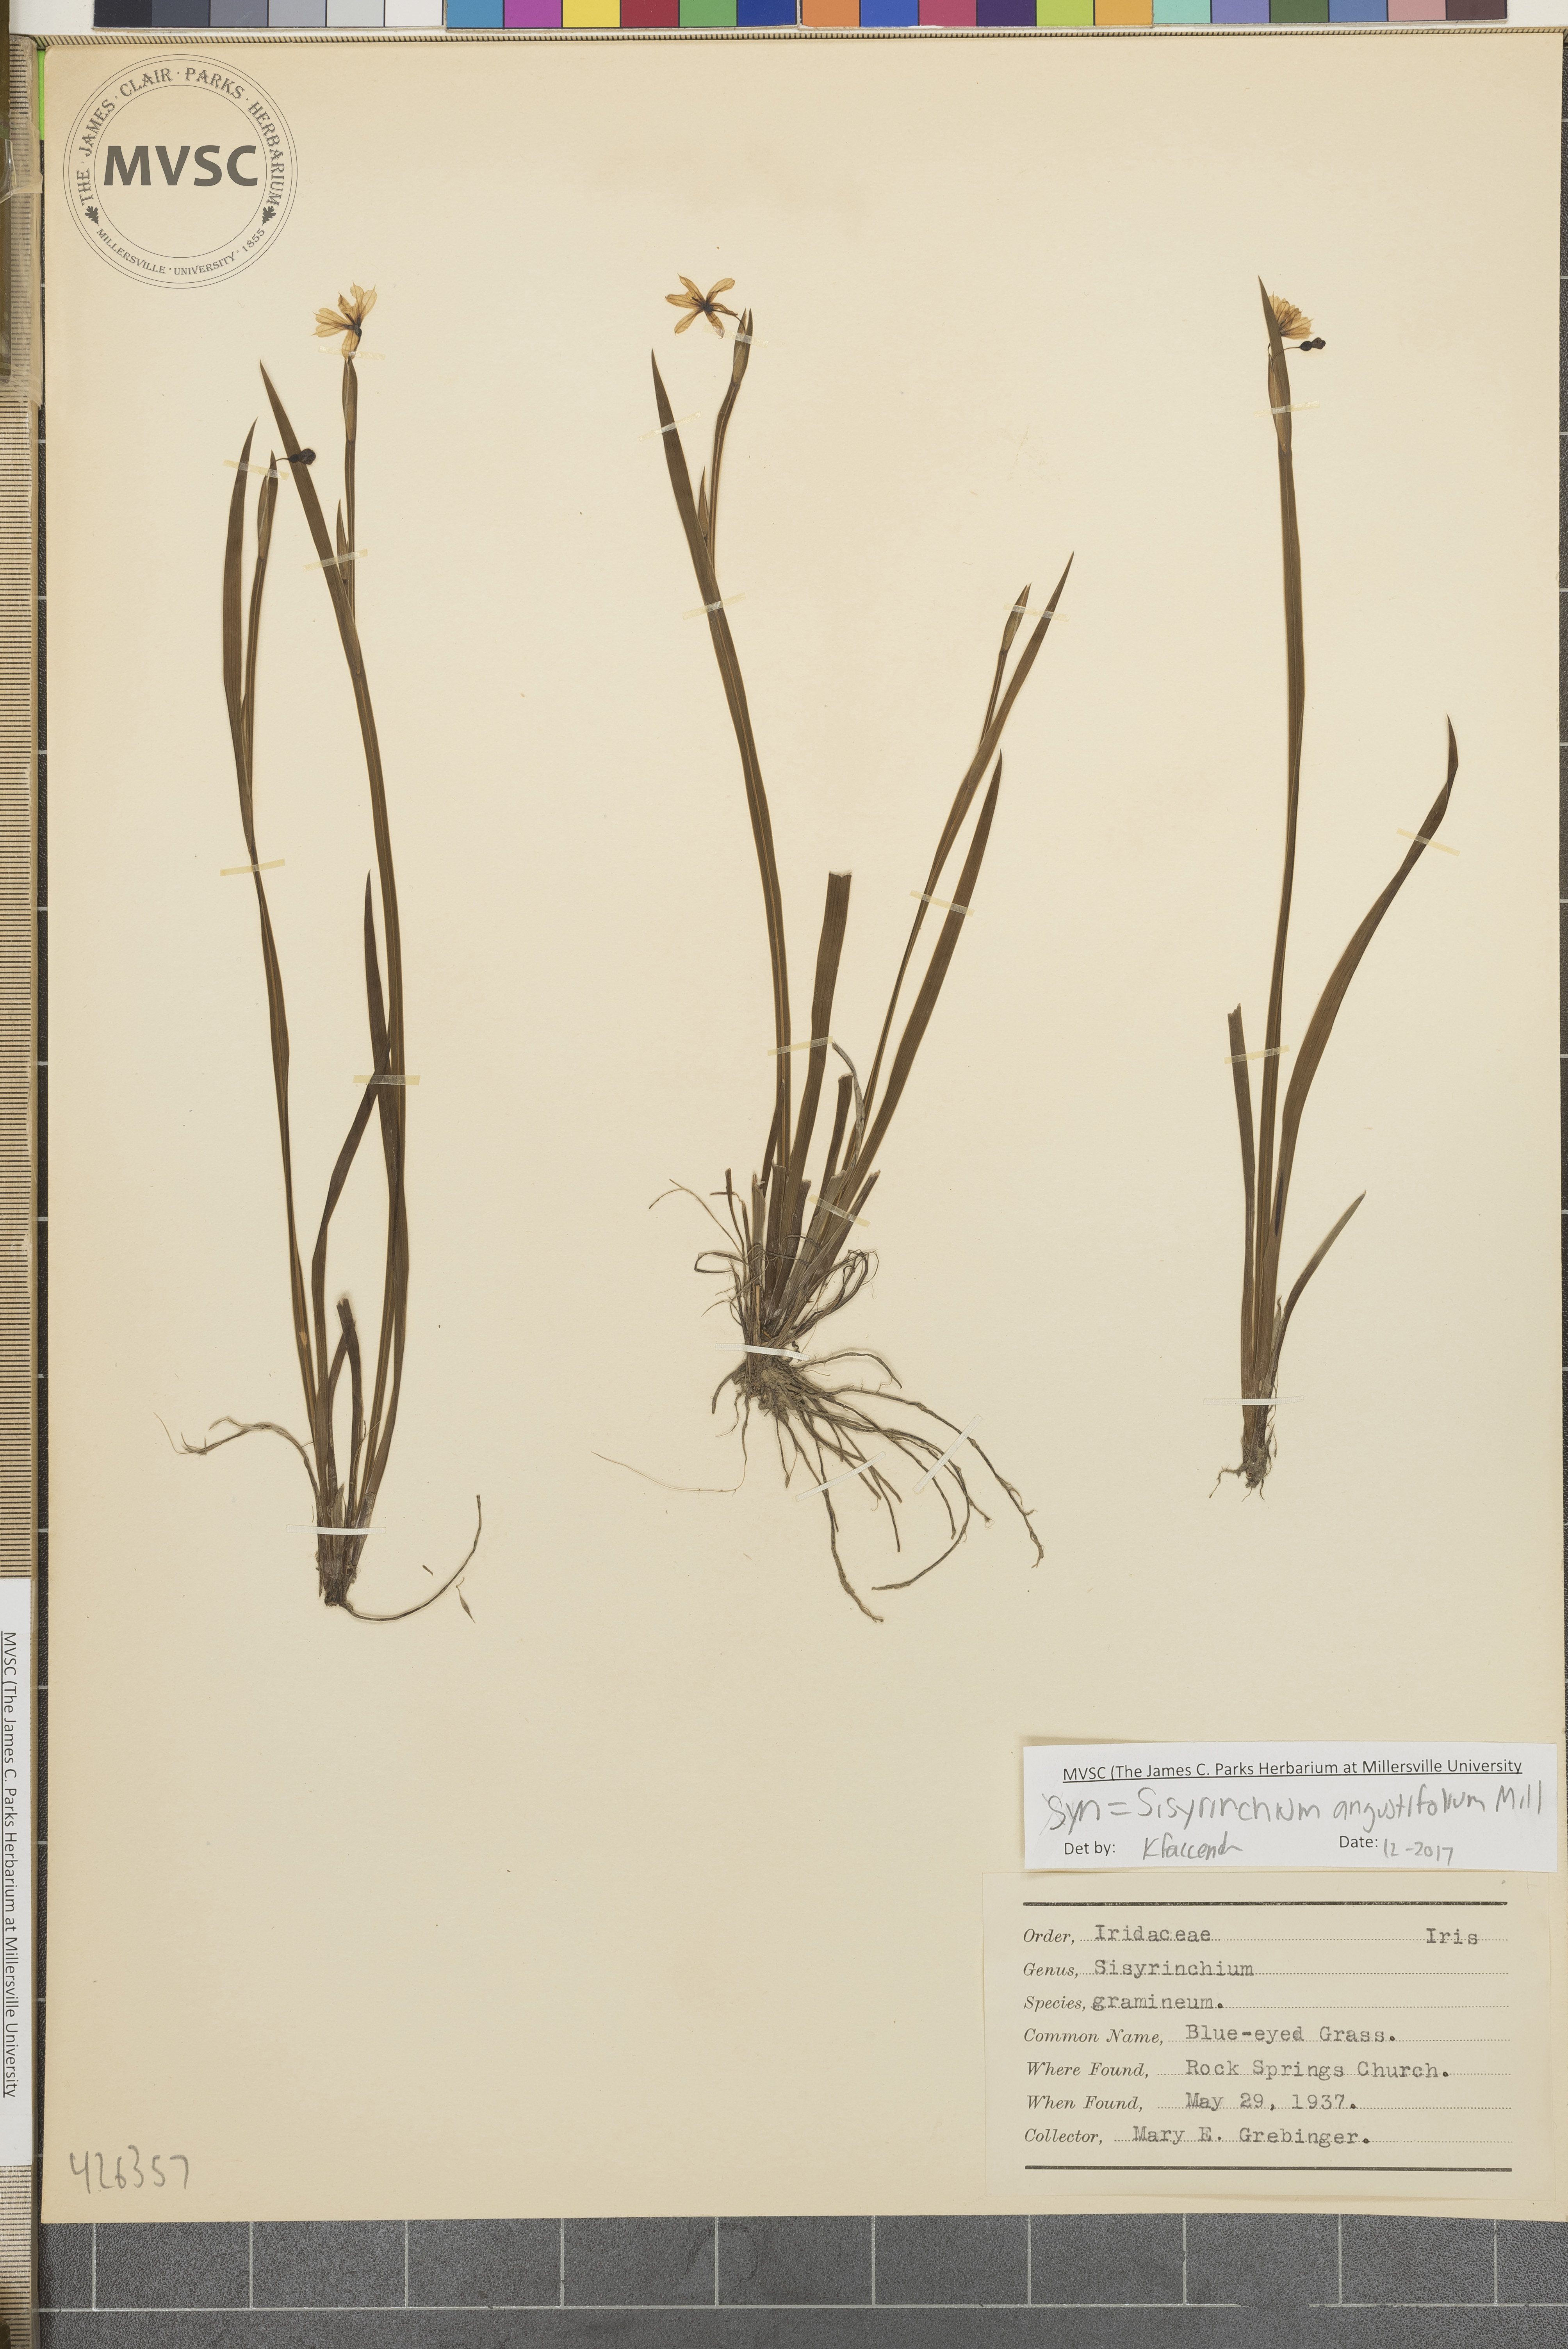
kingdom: Plantae
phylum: Tracheophyta
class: Liliopsida
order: Asparagales
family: Iridaceae
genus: Sisyrinchium
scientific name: Sisyrinchium angustifolium
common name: Blue-eyed grass
